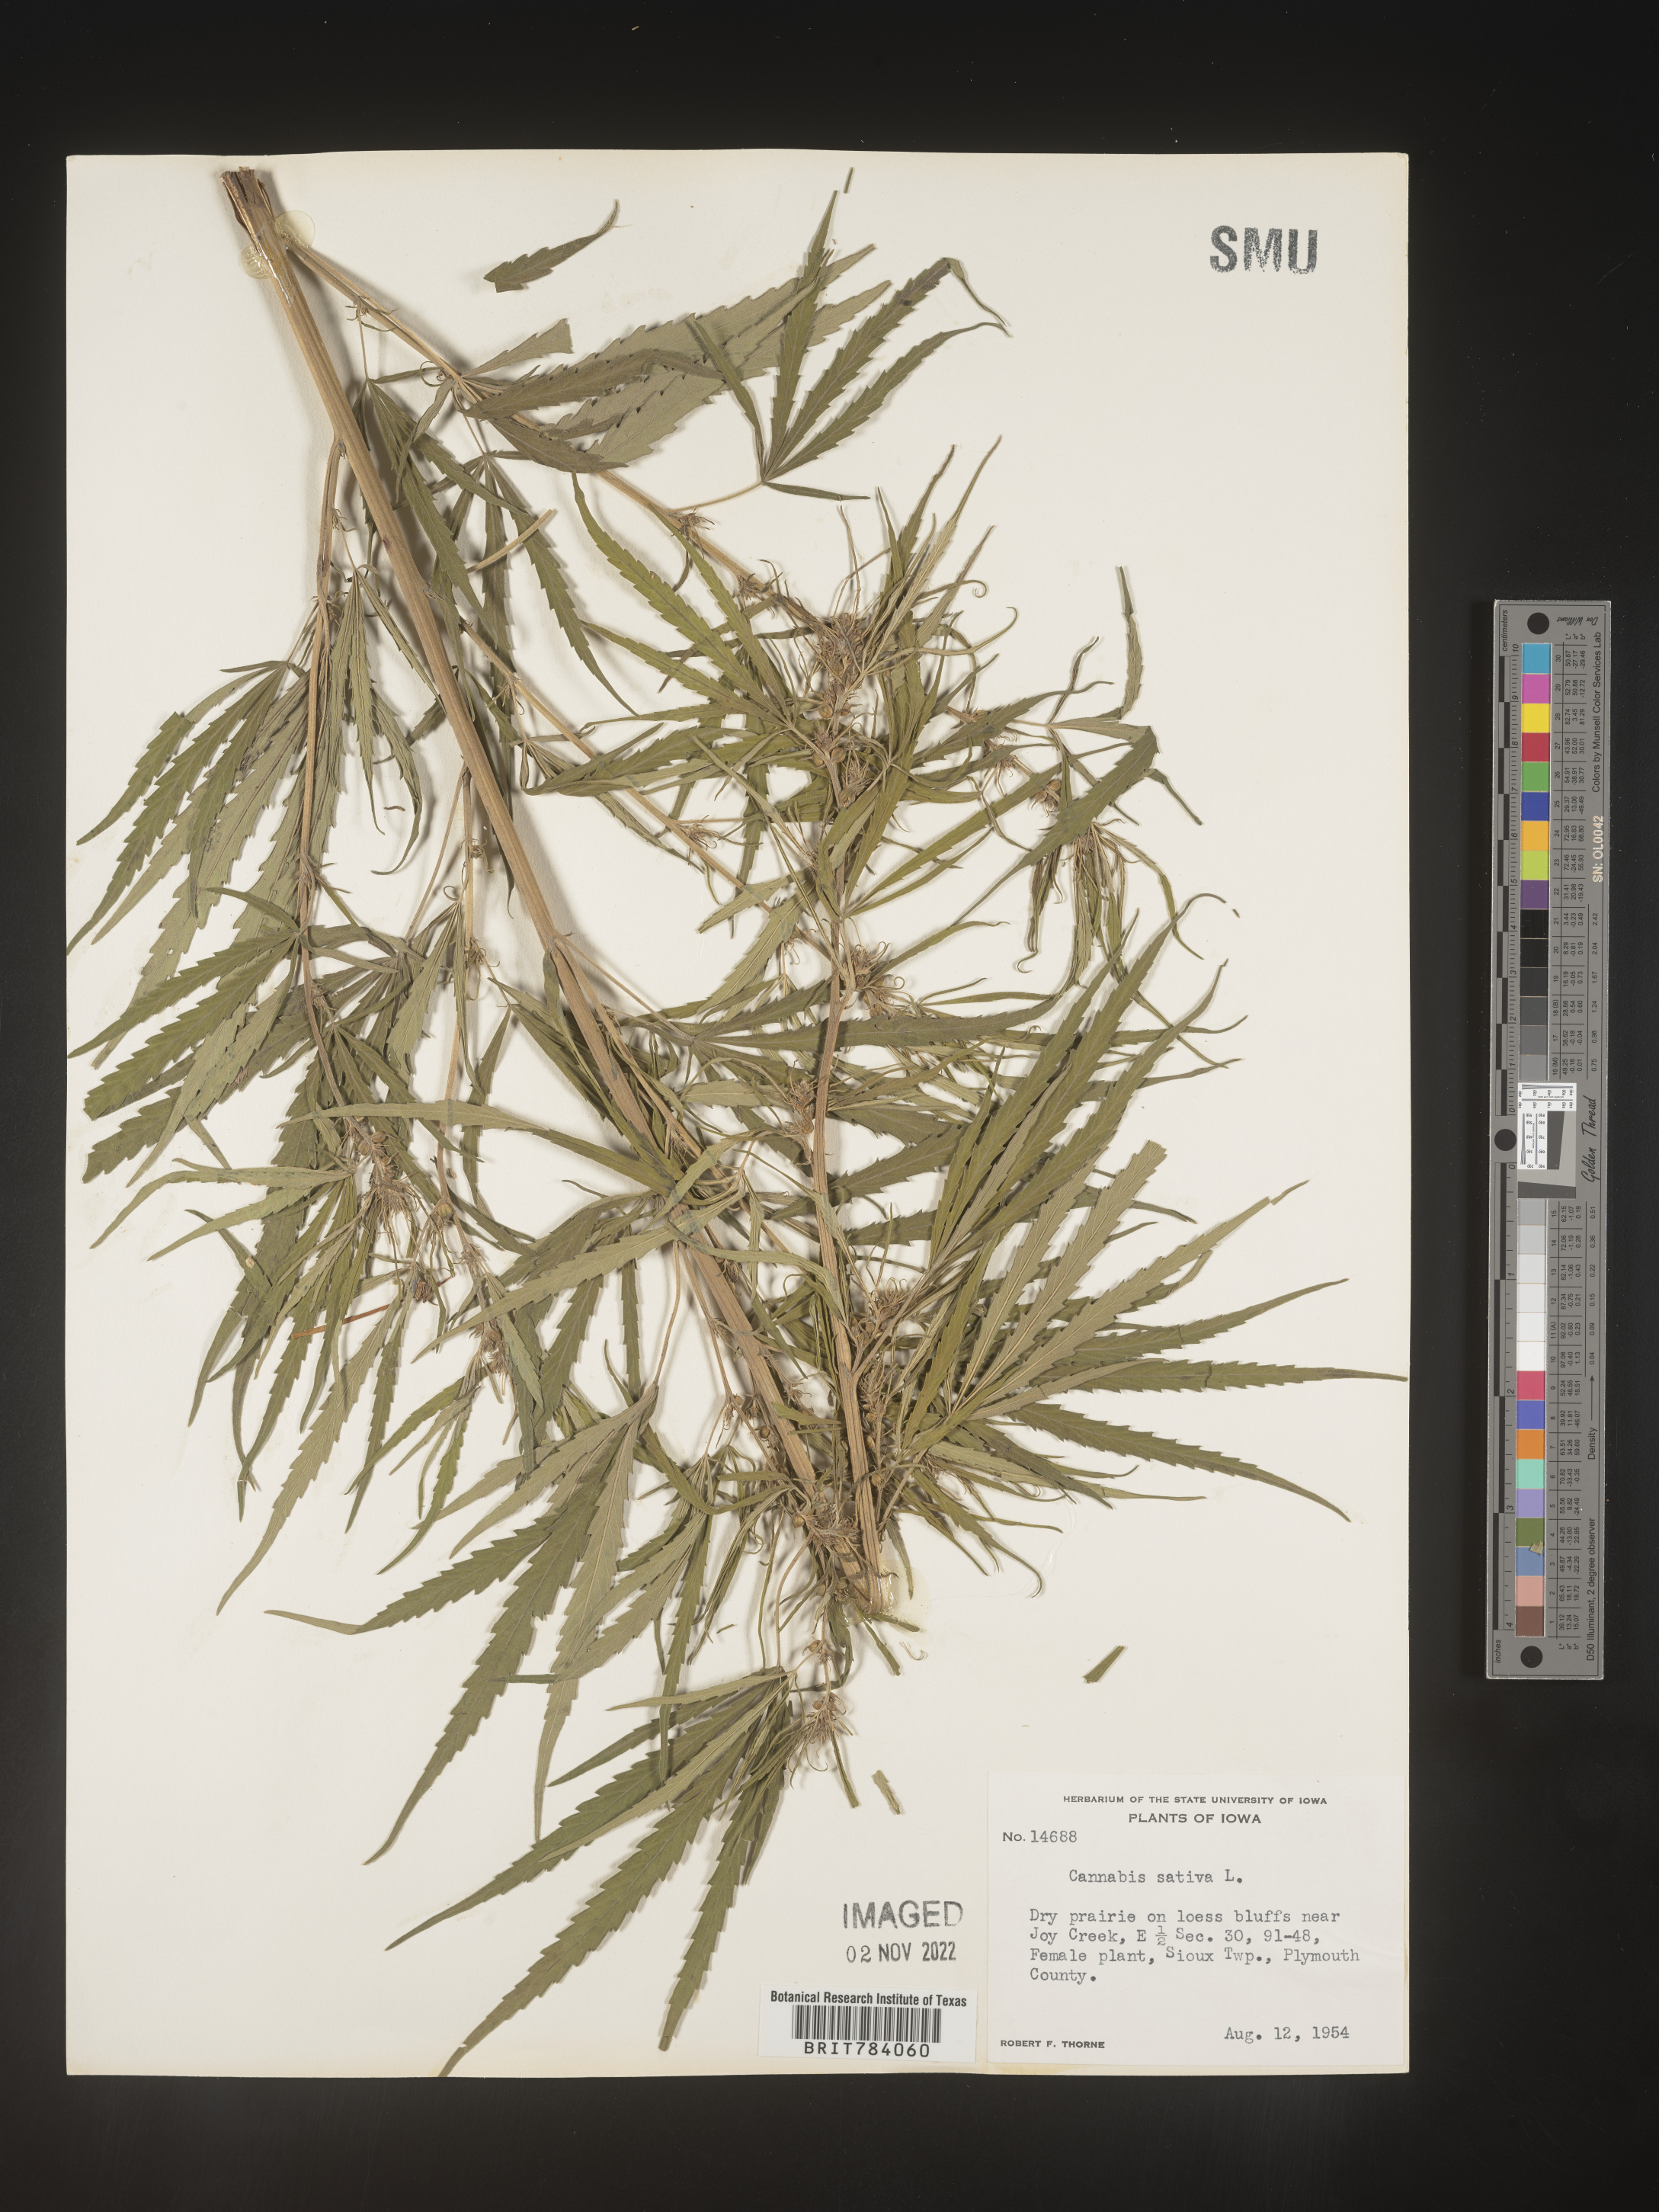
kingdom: Plantae
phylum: Tracheophyta
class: Magnoliopsida
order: Rosales
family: Cannabaceae
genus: Cannabis
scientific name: Cannabis sativa
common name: Hemp
